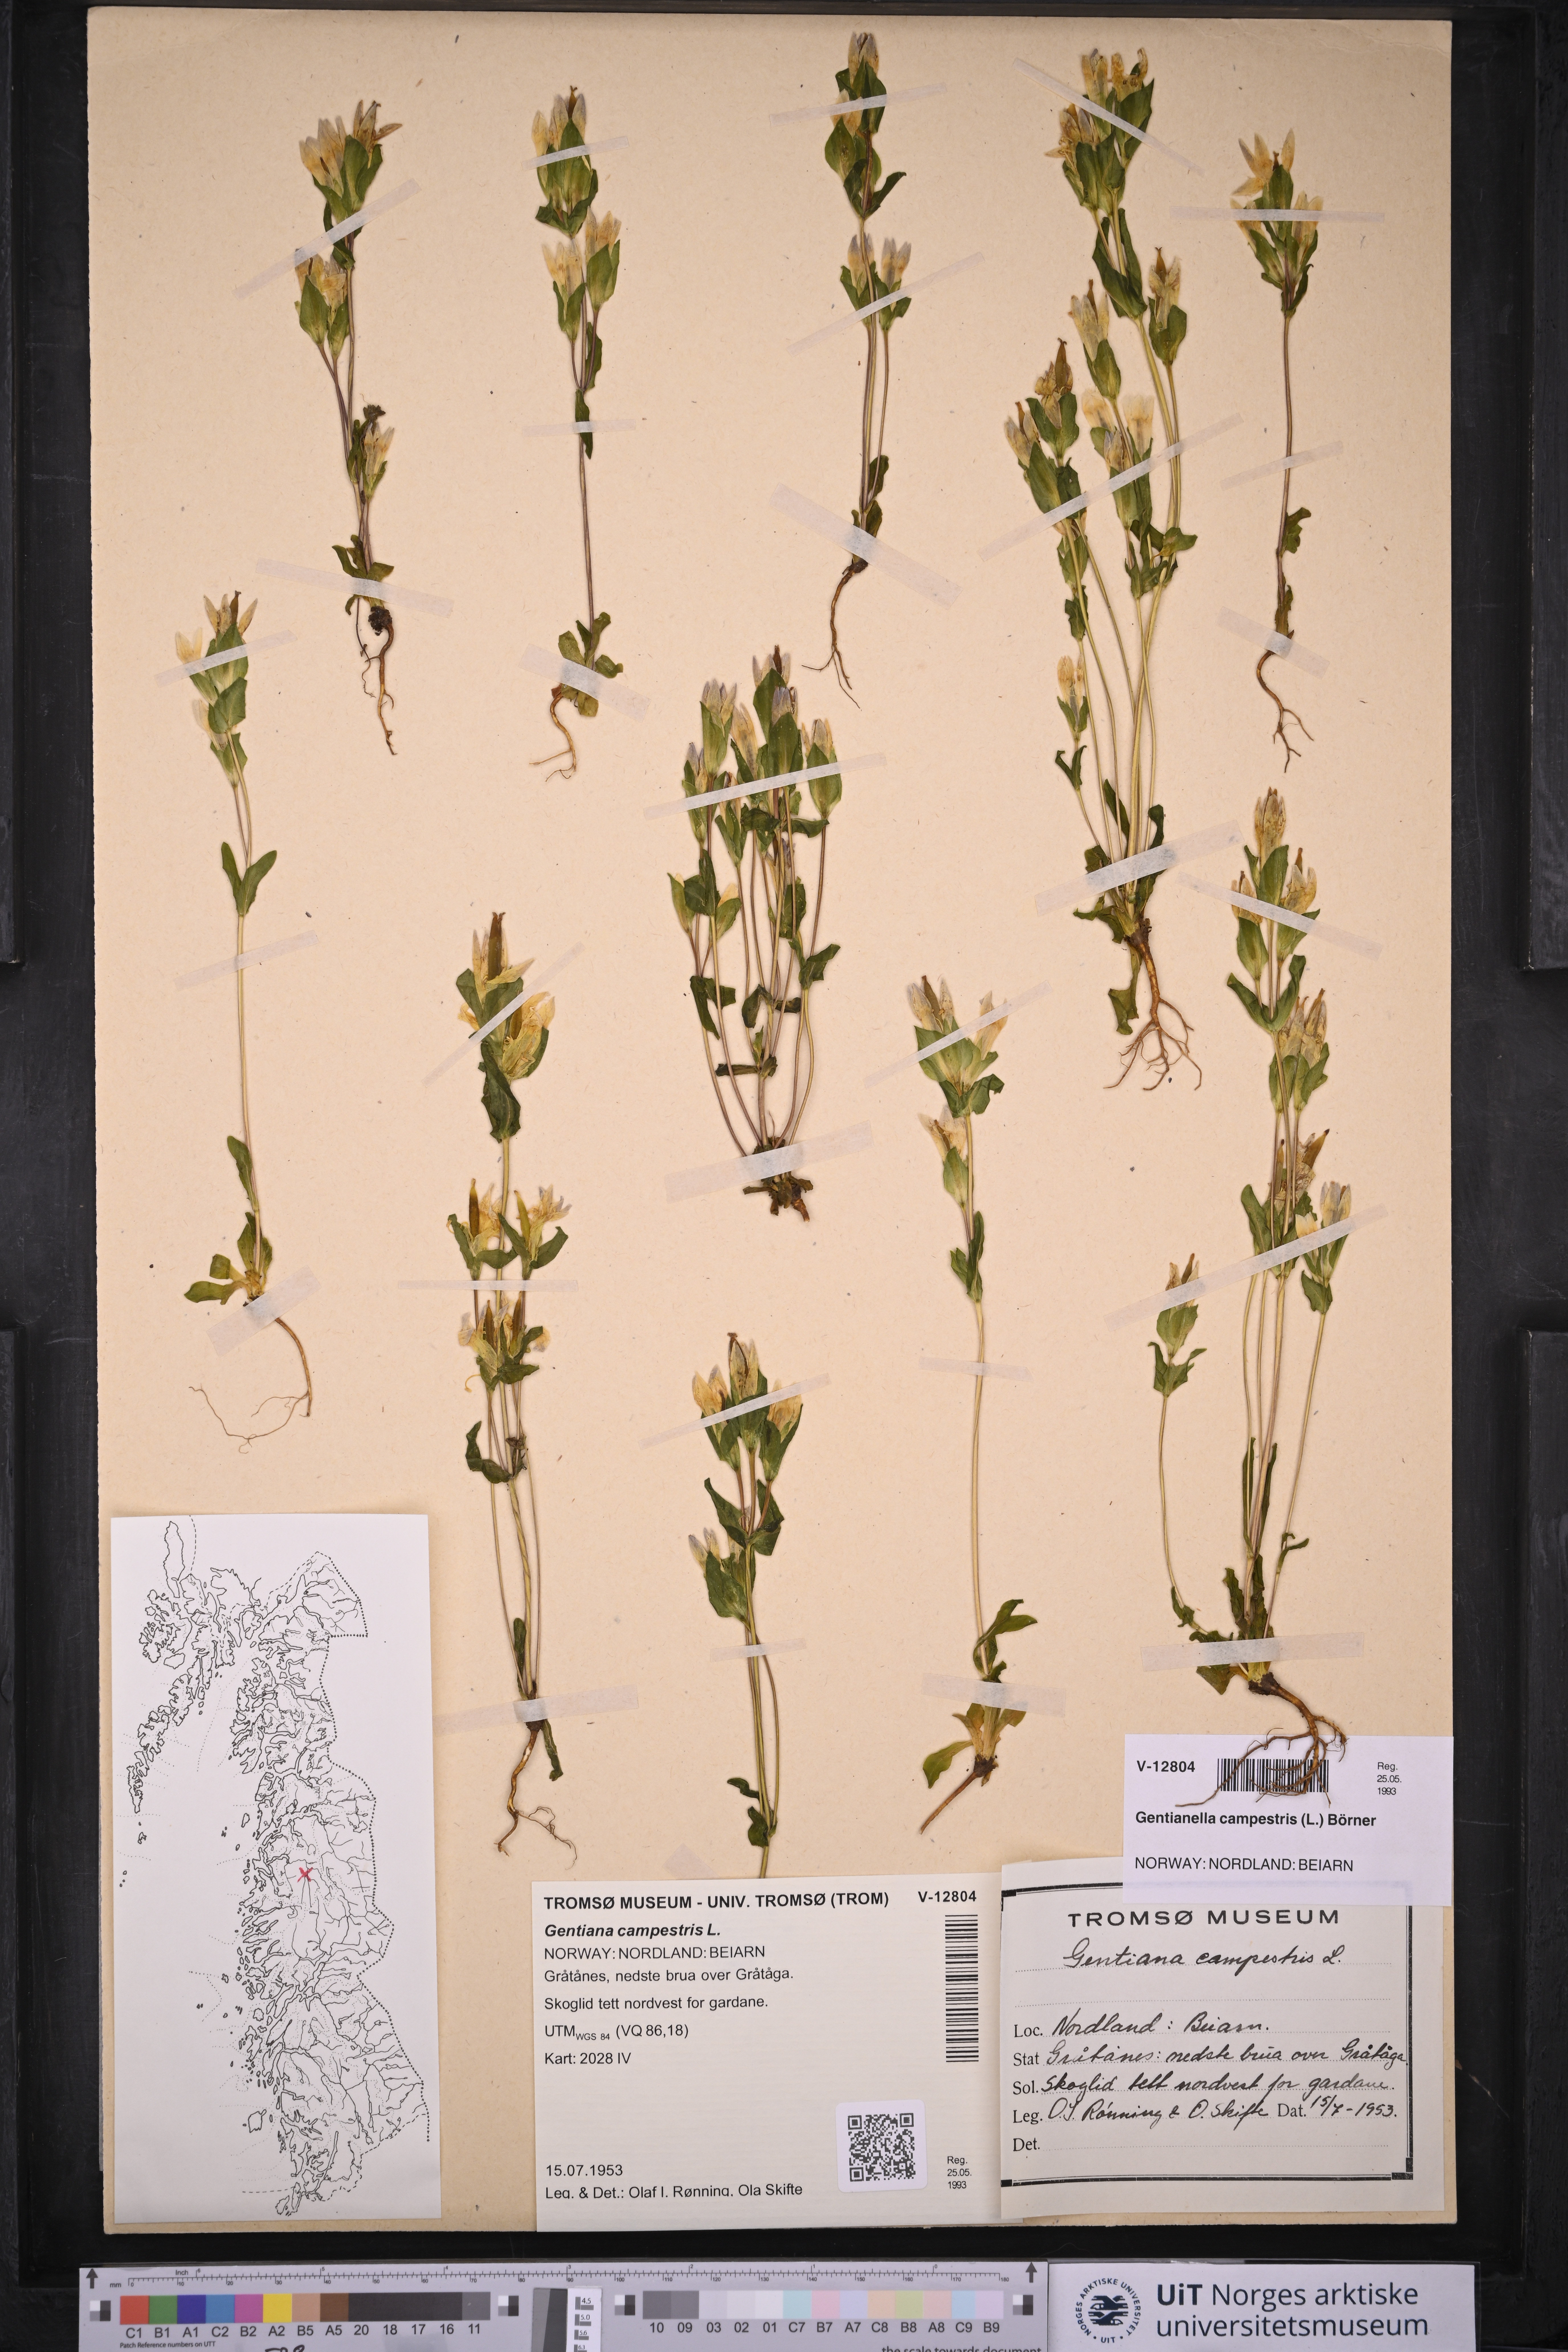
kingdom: Plantae
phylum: Tracheophyta
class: Magnoliopsida
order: Gentianales
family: Gentianaceae
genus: Gentianella
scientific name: Gentianella campestris
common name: Field gentian
